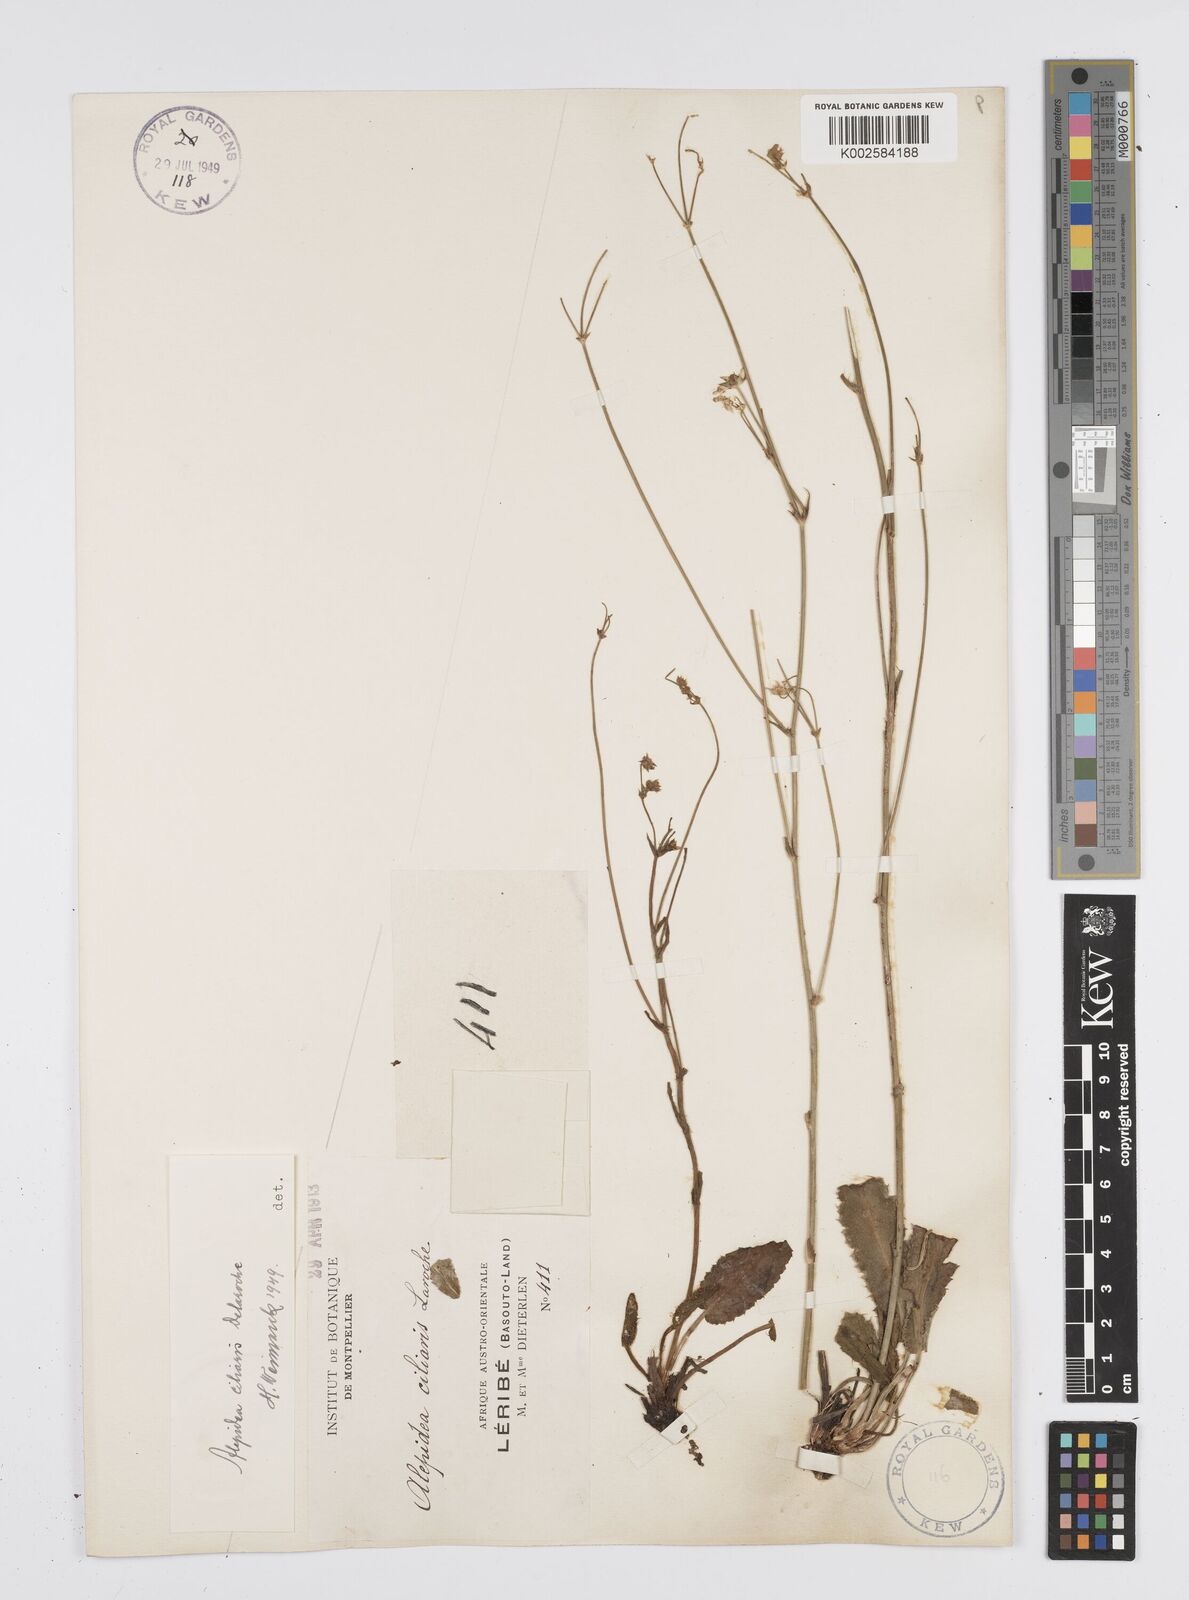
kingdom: Plantae
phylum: Tracheophyta
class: Magnoliopsida
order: Apiales
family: Apiaceae
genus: Alepidea
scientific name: Alepidea capensis
